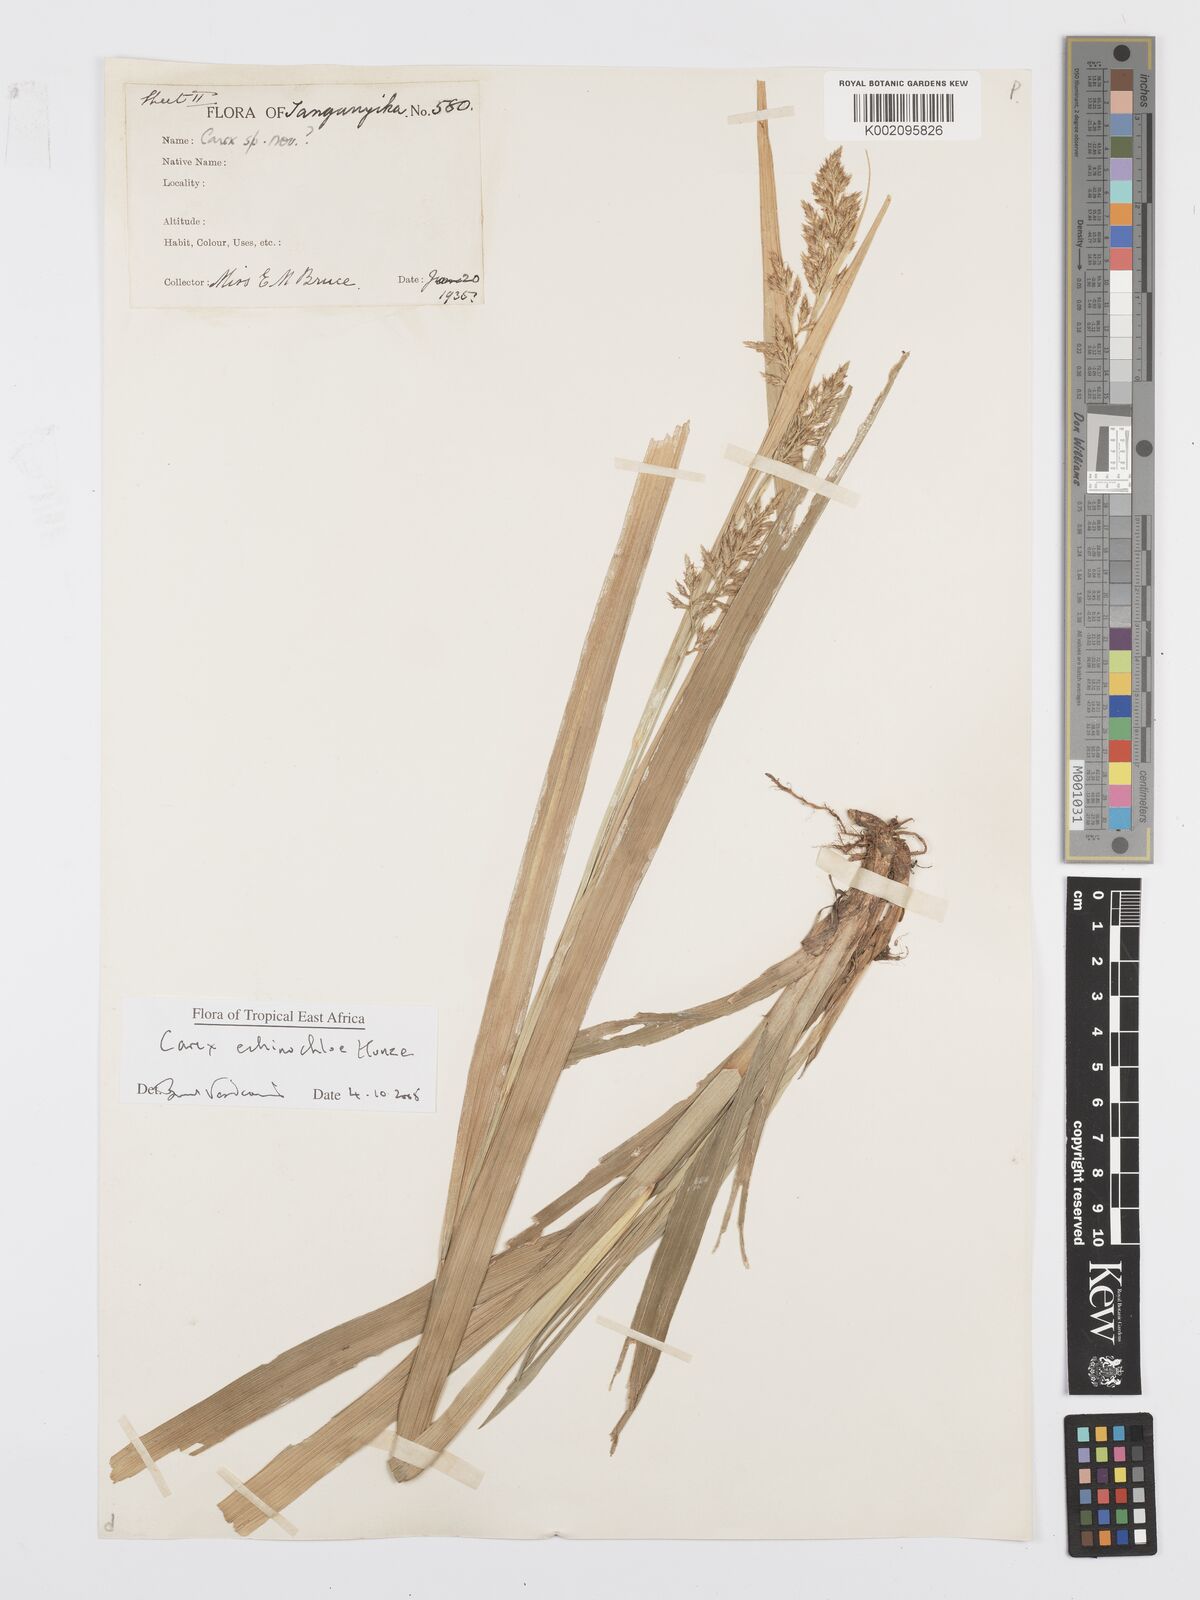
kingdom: Plantae
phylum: Tracheophyta
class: Liliopsida
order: Poales
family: Cyperaceae
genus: Carex
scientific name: Carex echinochloe
